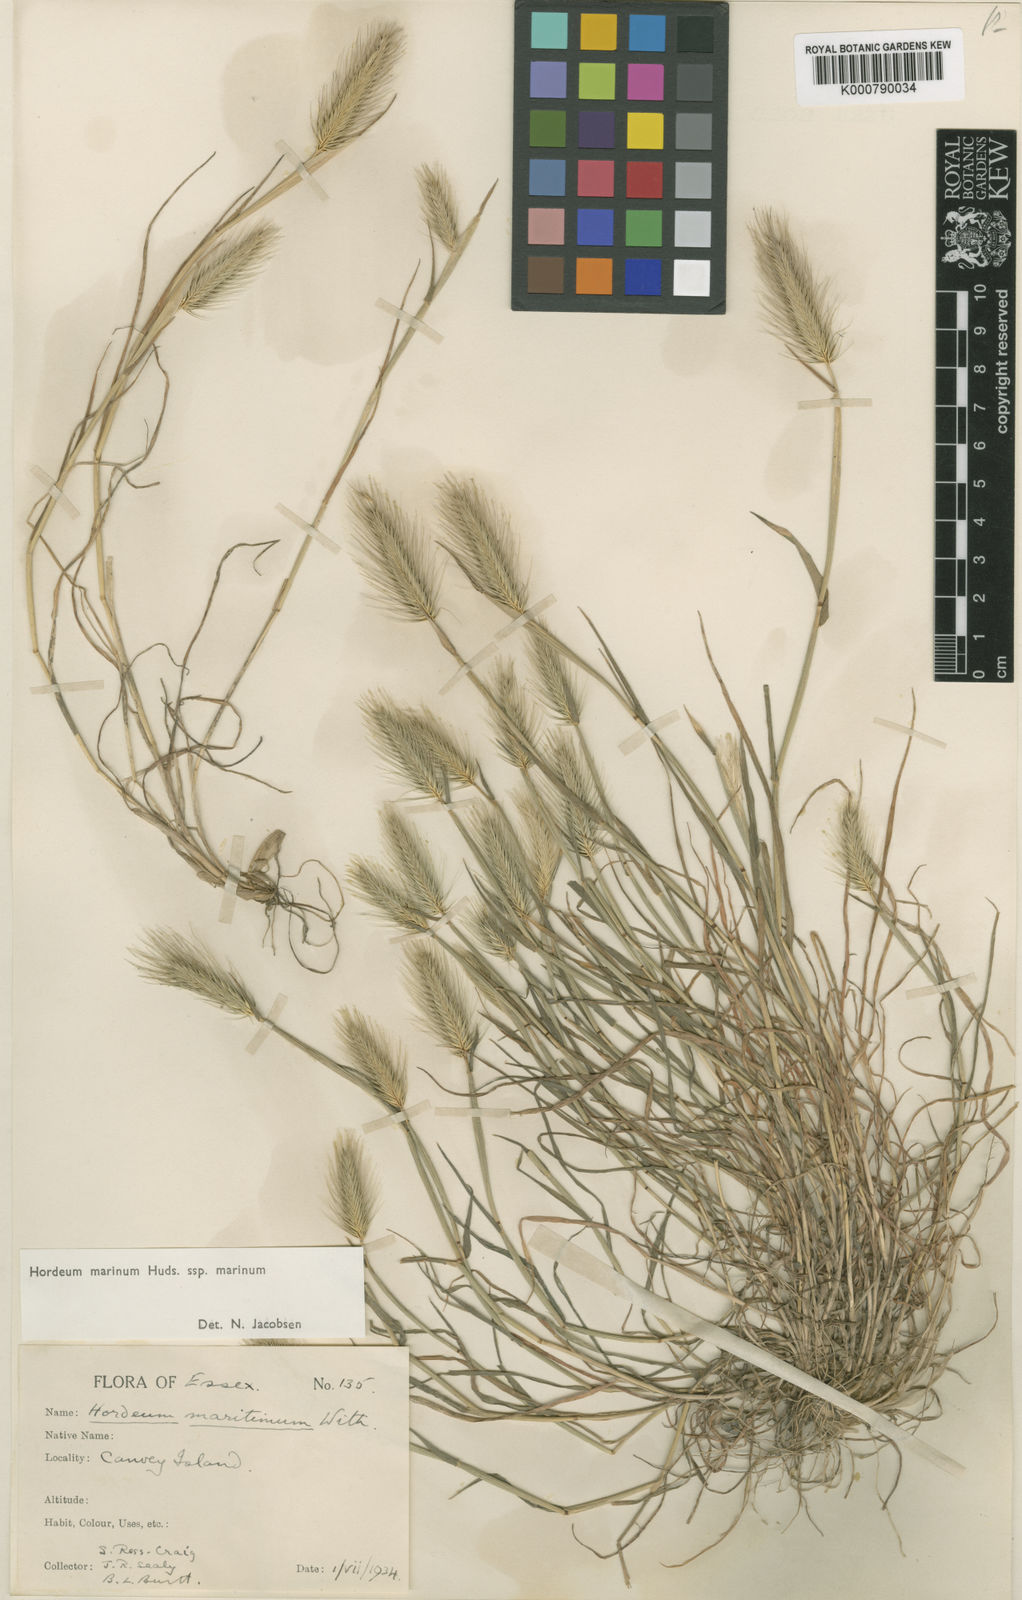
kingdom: Plantae
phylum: Tracheophyta
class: Liliopsida
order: Poales
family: Poaceae
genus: Hordeum
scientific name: Hordeum marinum
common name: Sea barley
